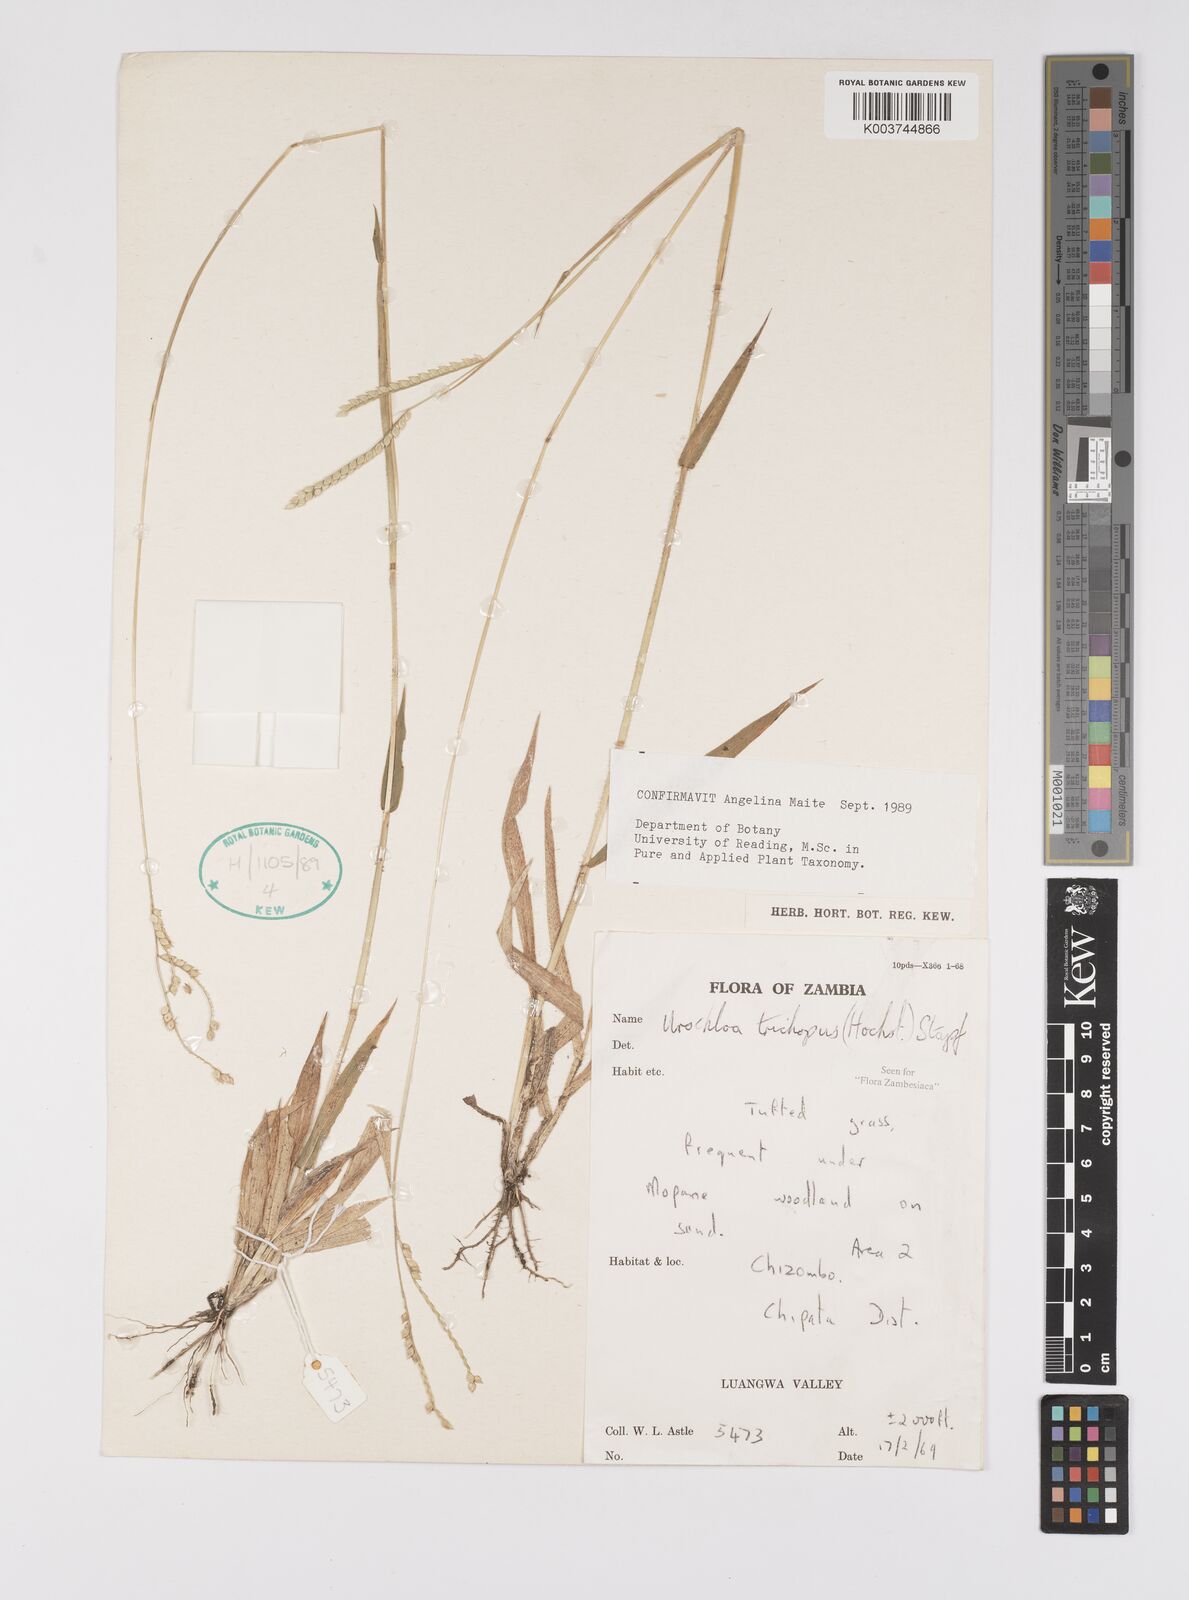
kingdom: Plantae
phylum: Tracheophyta
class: Liliopsida
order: Poales
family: Poaceae
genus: Urochloa
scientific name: Urochloa trichopus
